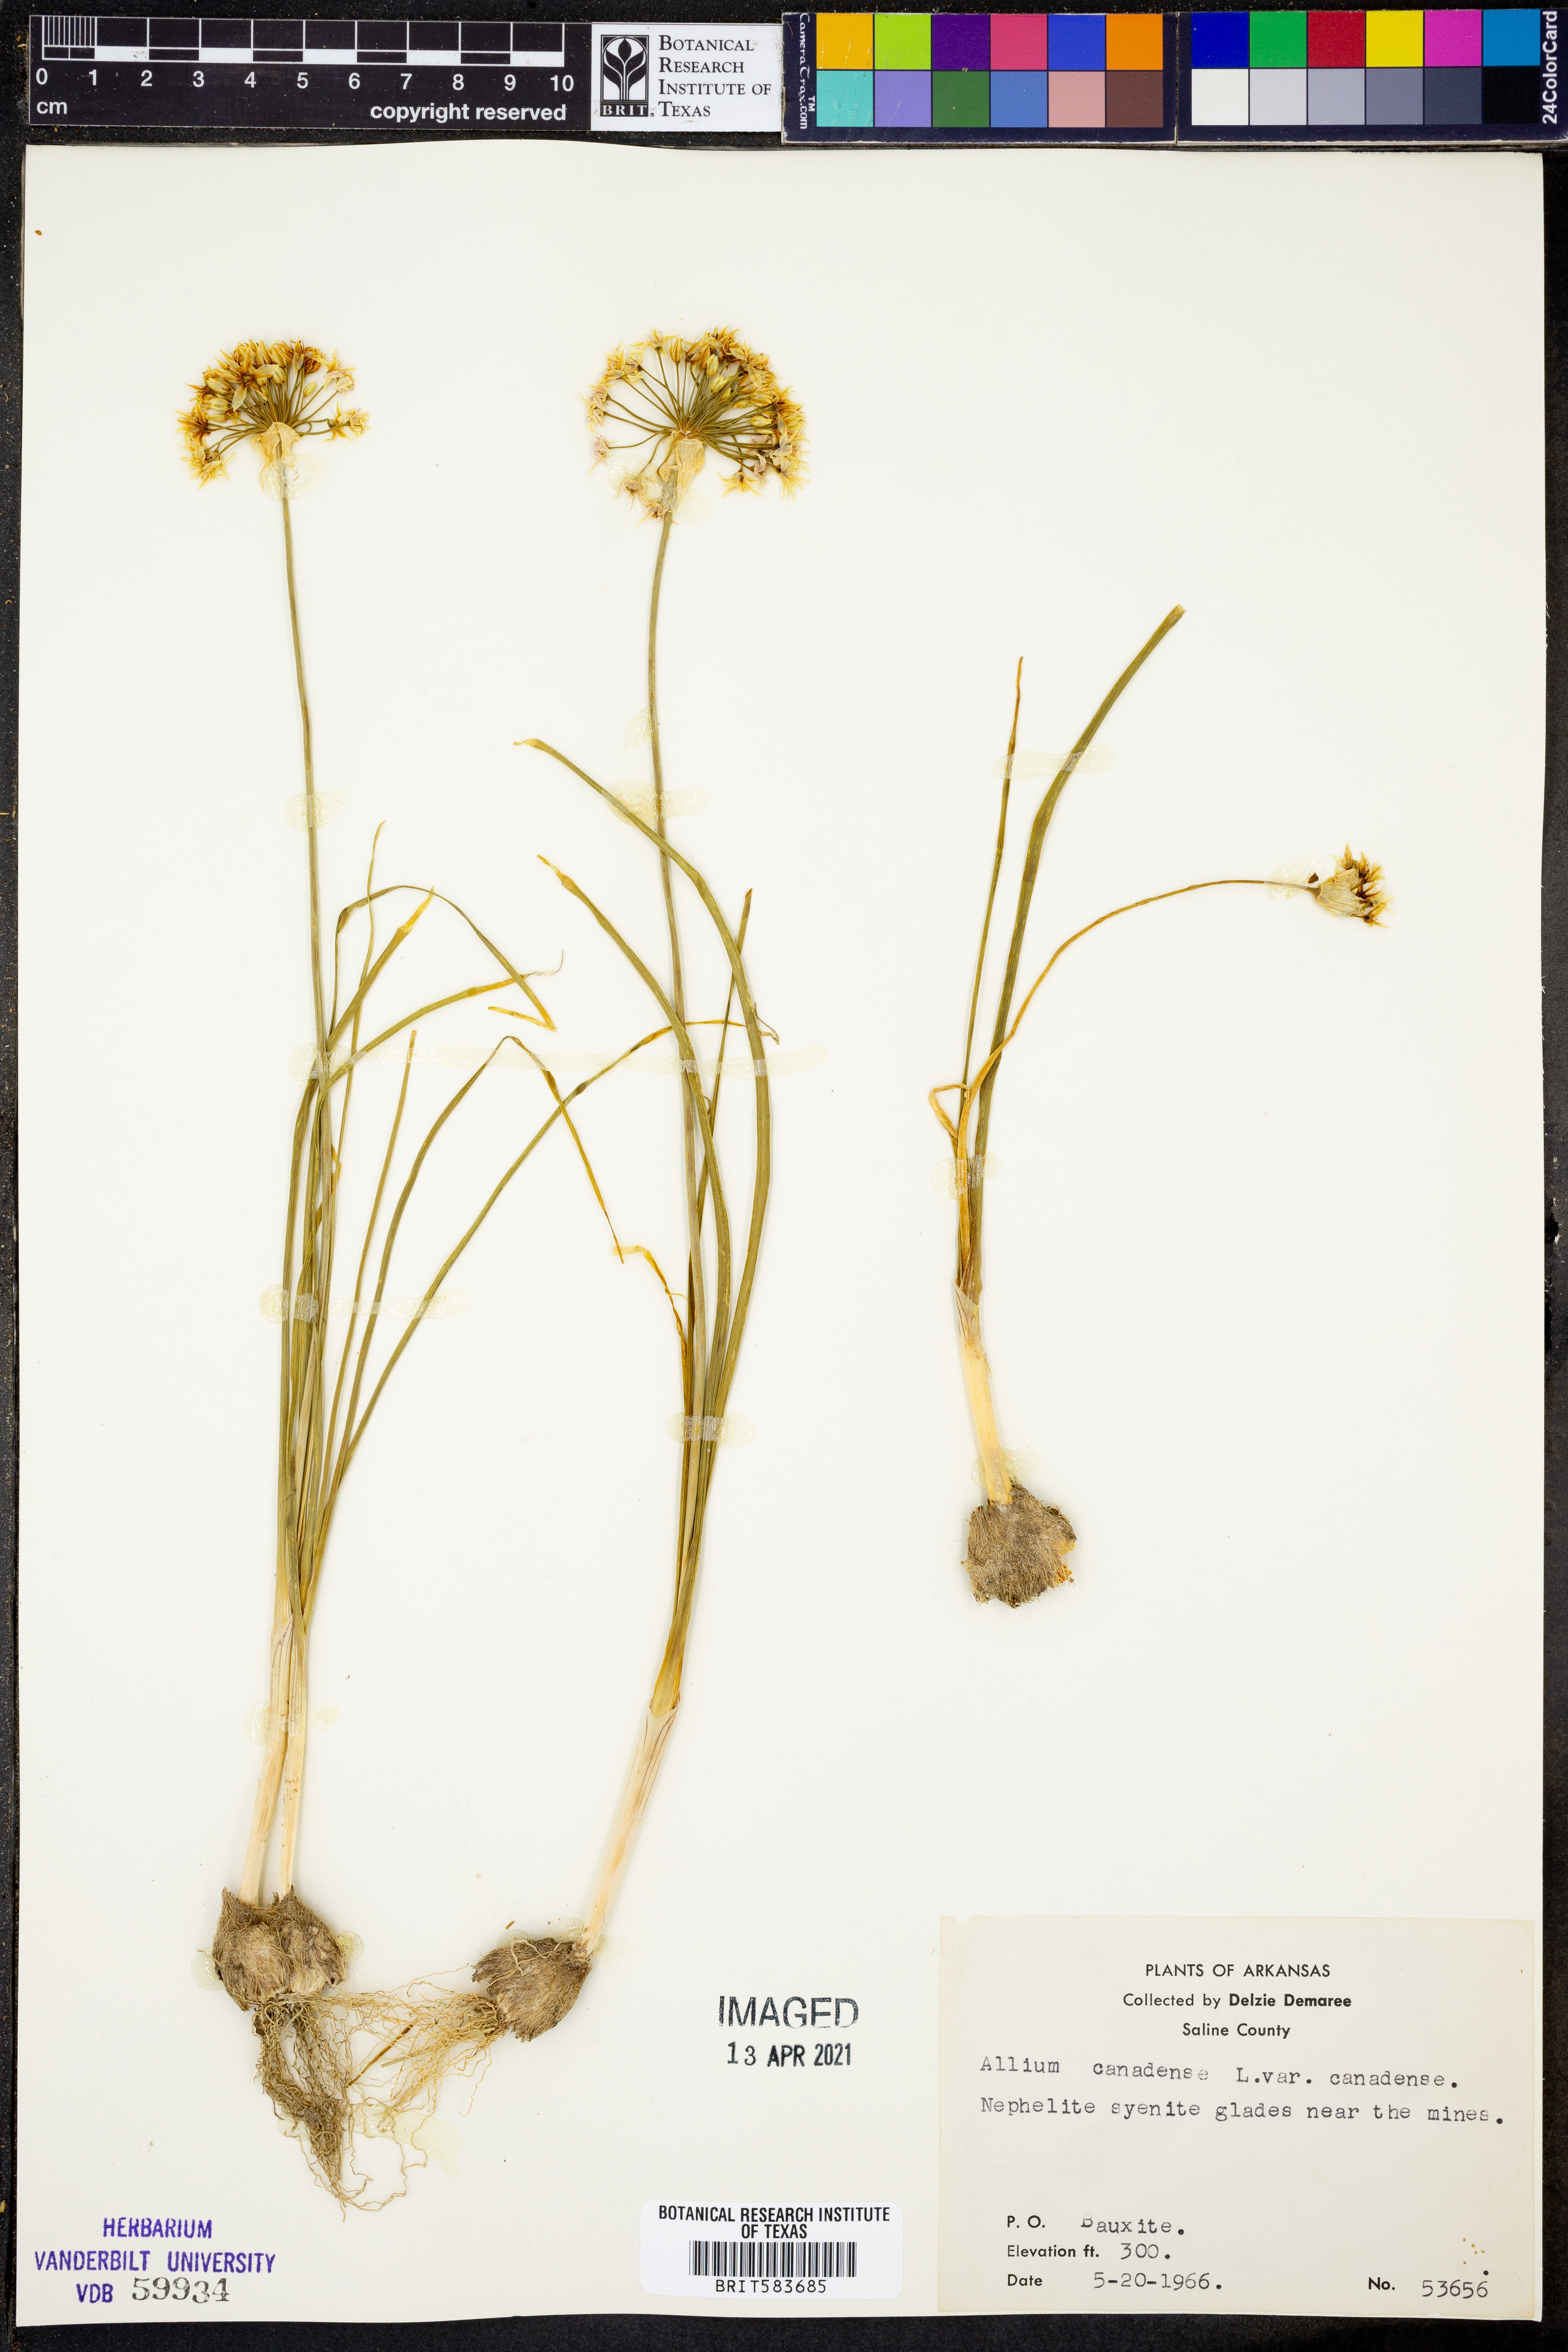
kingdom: Plantae
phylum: Tracheophyta
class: Liliopsida
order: Asparagales
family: Amaryllidaceae
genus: Allium
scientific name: Allium canadense
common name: Meadow garlic
